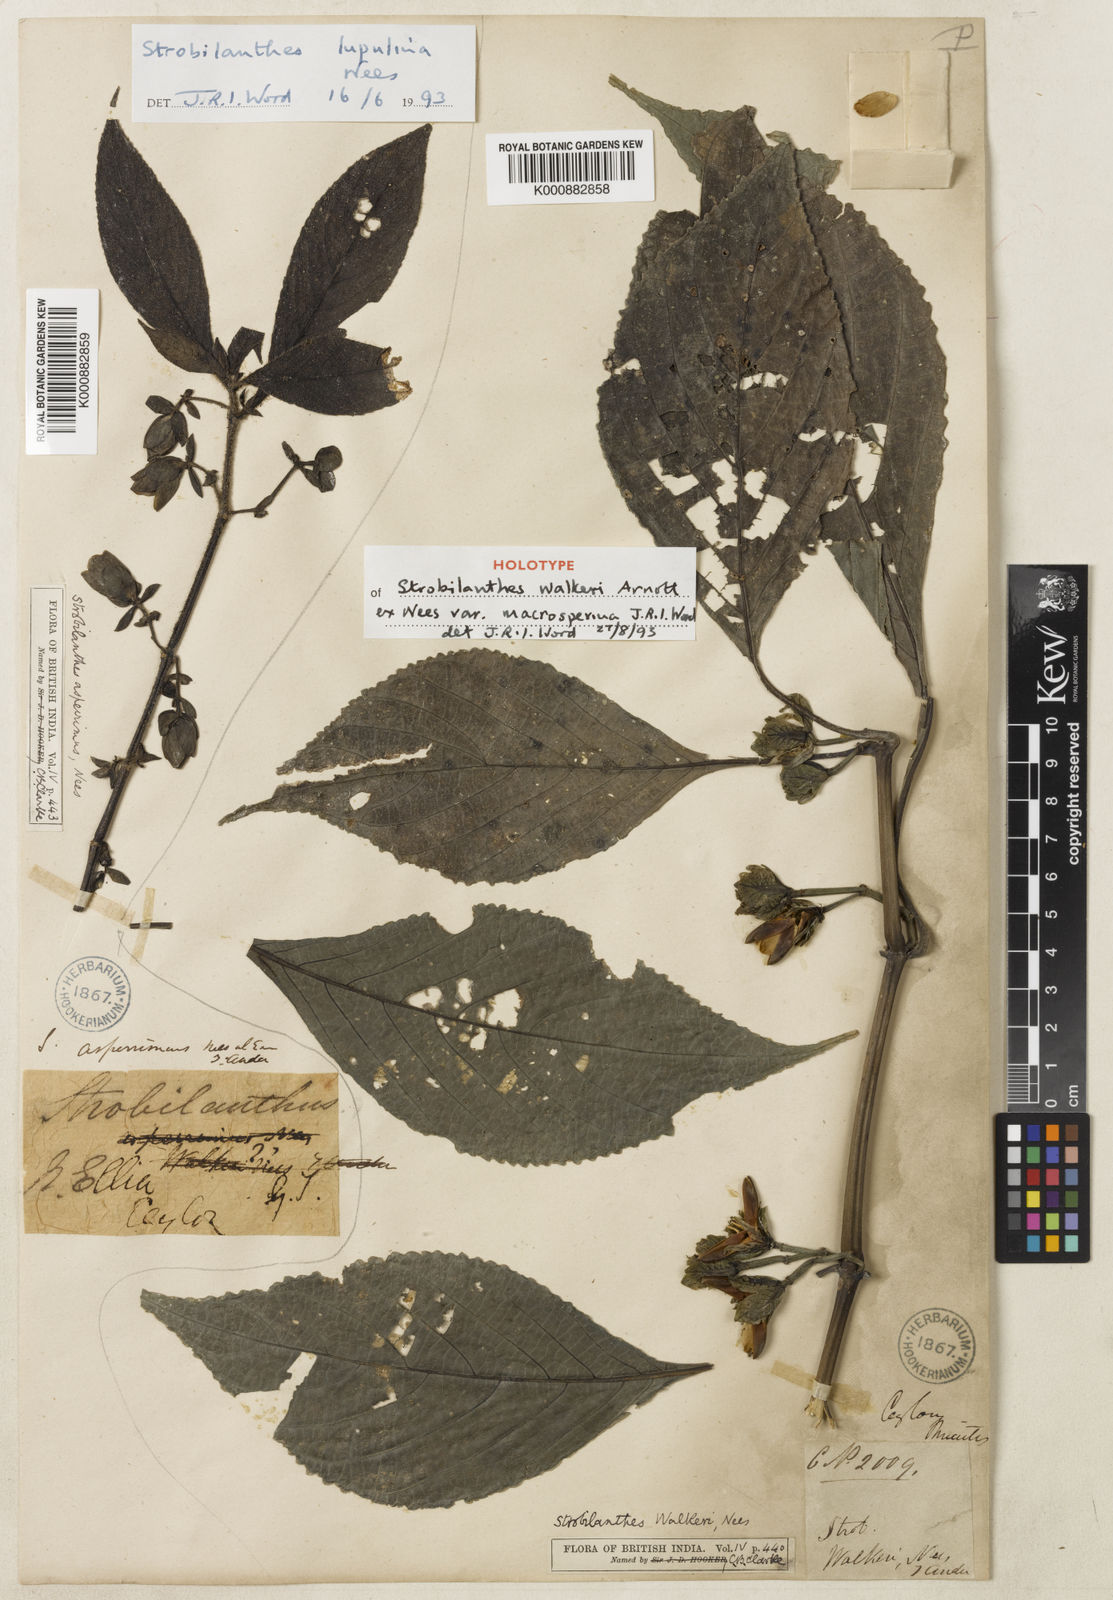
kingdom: Plantae
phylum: Tracheophyta
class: Magnoliopsida
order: Lamiales
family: Acanthaceae
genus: Strobilanthes
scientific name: Strobilanthes walkeri
